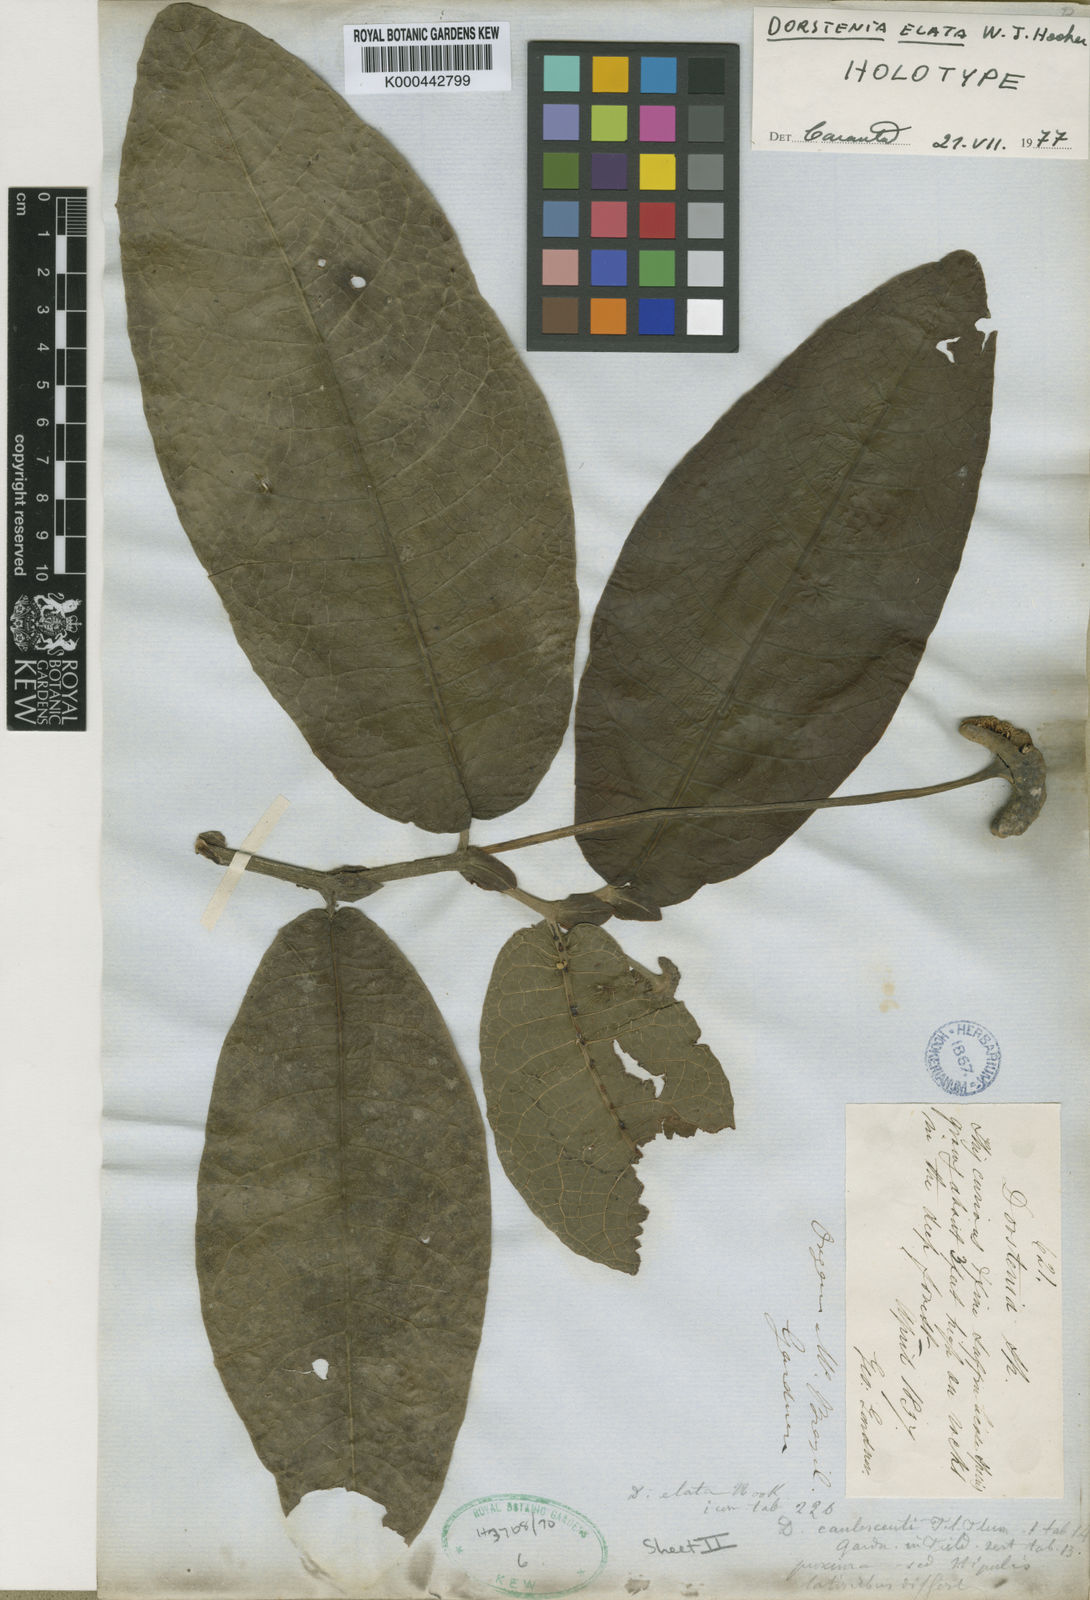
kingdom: Plantae
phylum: Tracheophyta
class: Magnoliopsida
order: Rosales
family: Moraceae
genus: Dorstenia
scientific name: Dorstenia
